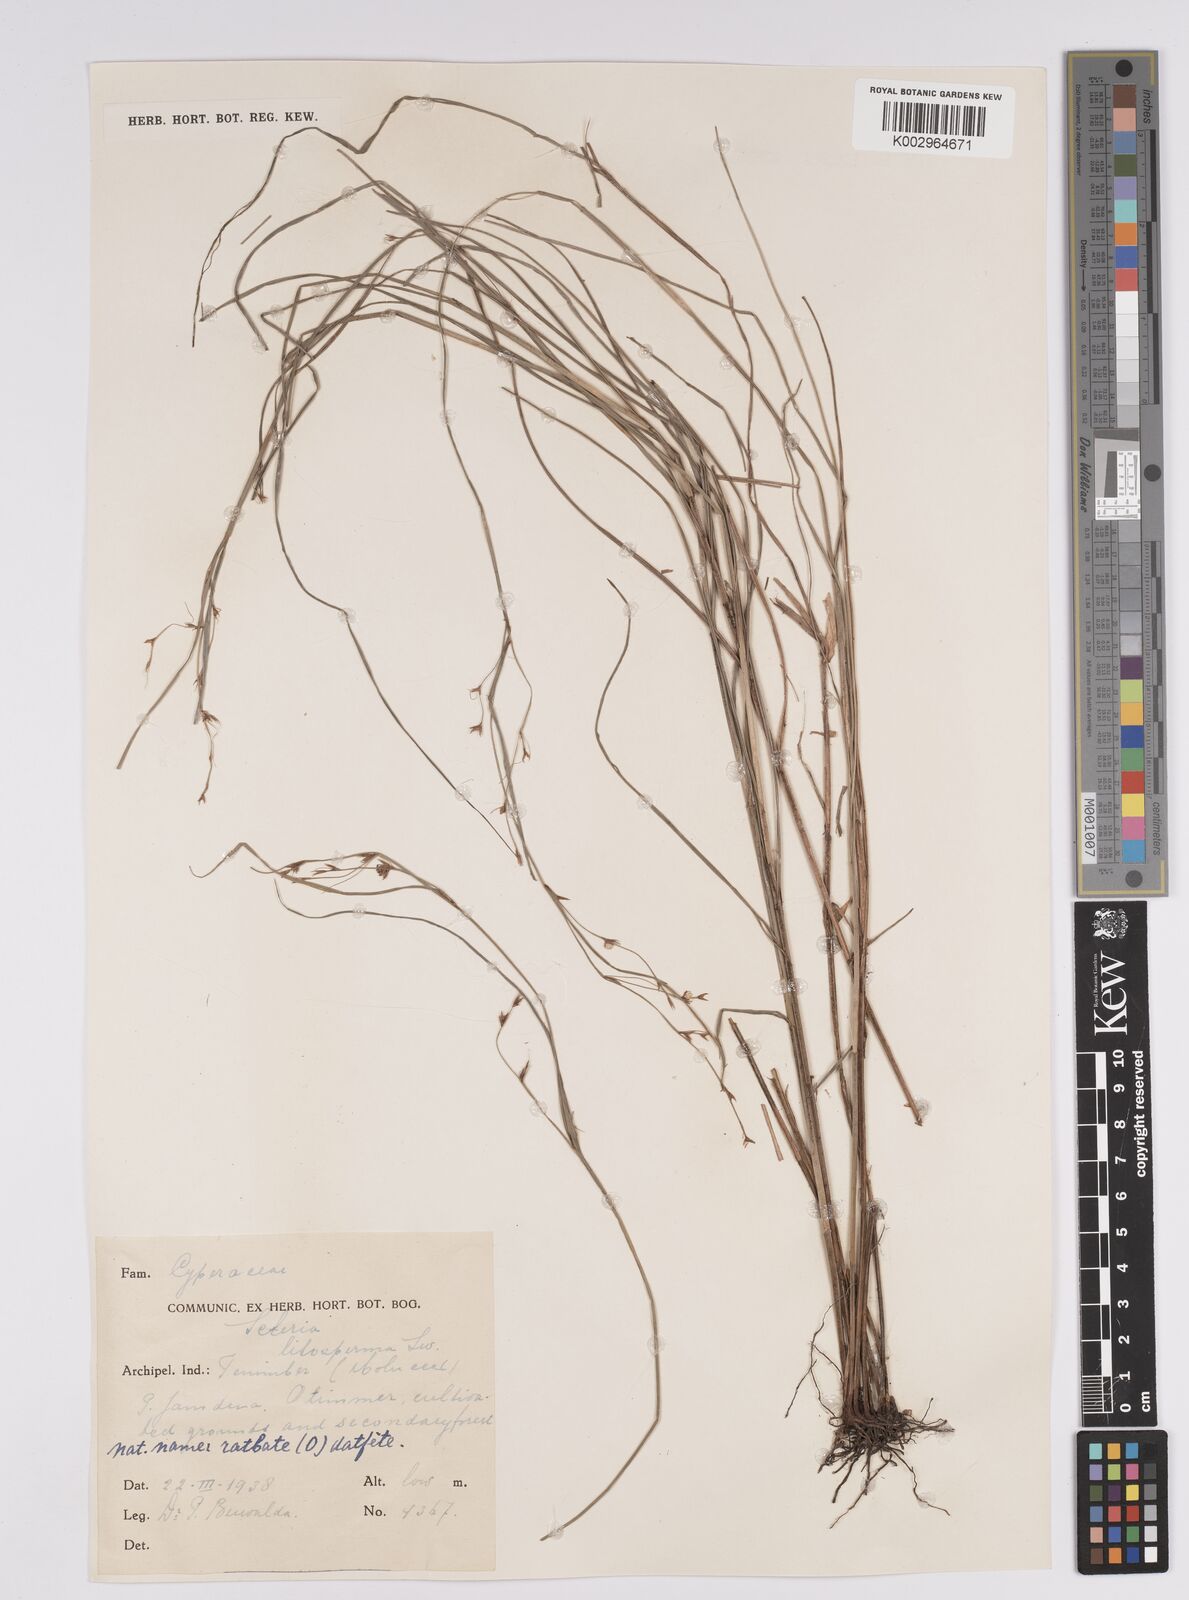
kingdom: Plantae
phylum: Tracheophyta
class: Liliopsida
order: Poales
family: Cyperaceae
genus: Scleria
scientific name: Scleria lithosperma
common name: Florida keys nut-rush
